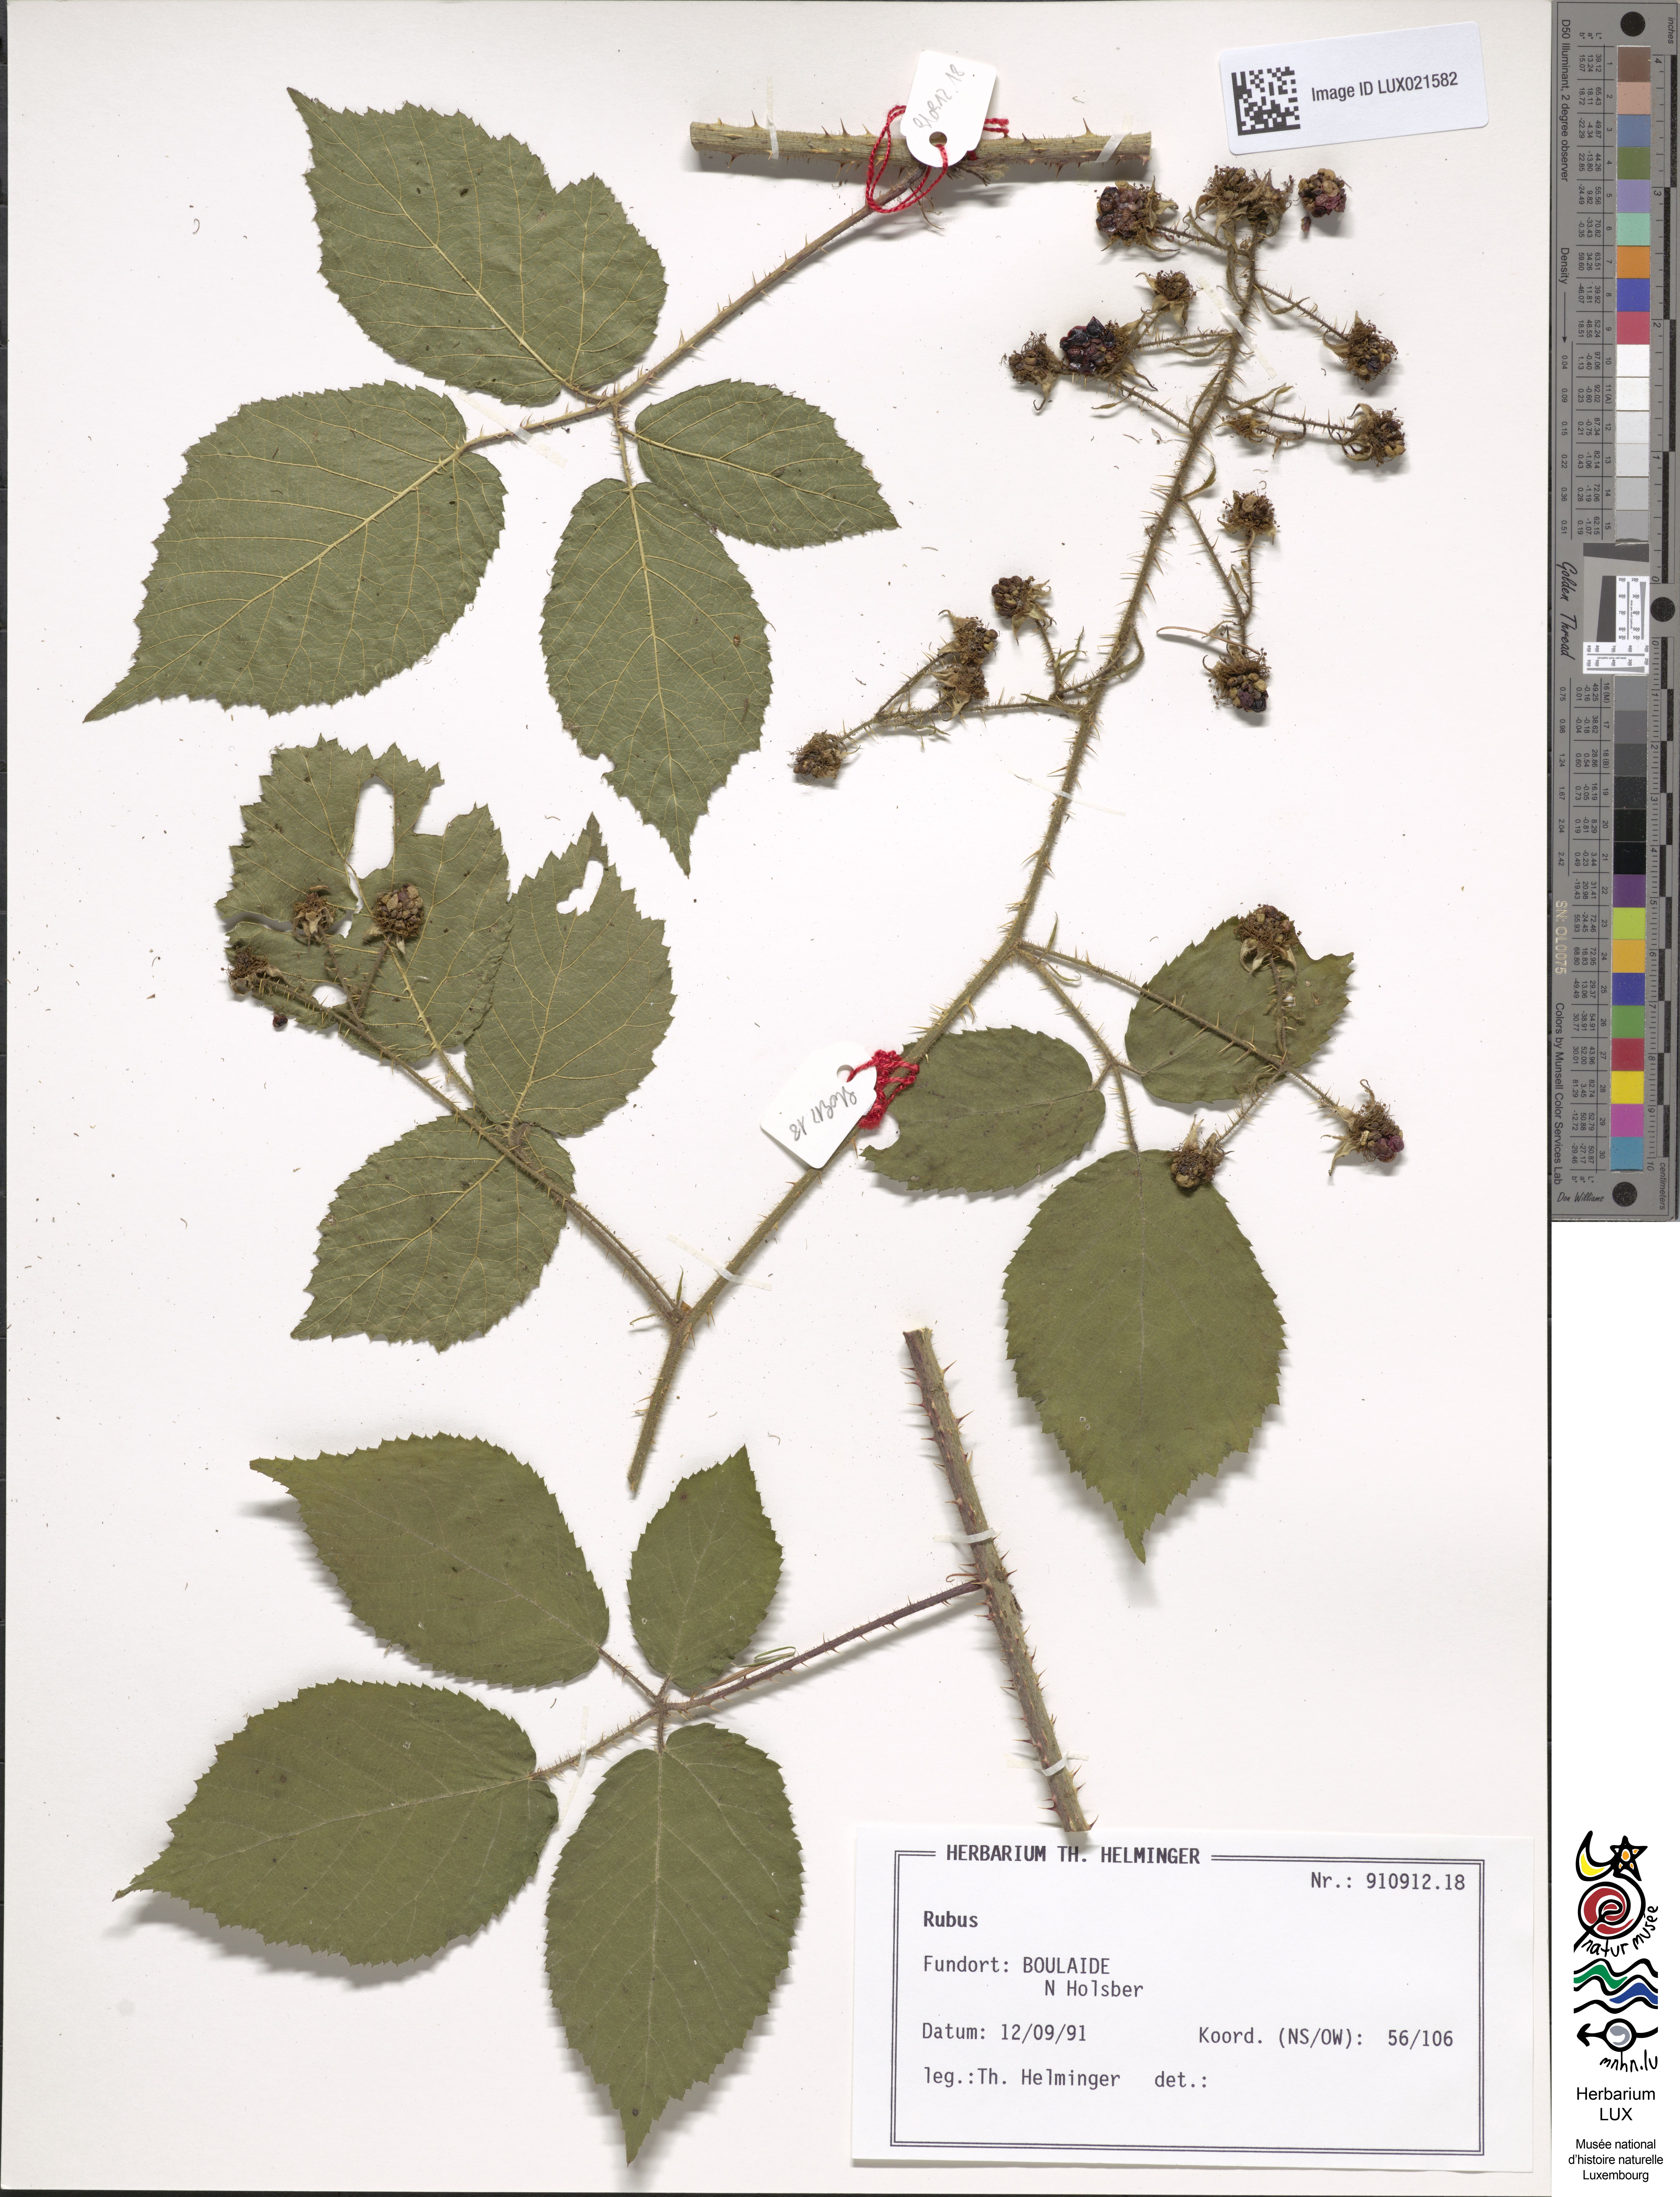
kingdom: Plantae
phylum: Tracheophyta
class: Magnoliopsida
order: Rosales
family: Rosaceae
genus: Rubus
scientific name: Rubus
